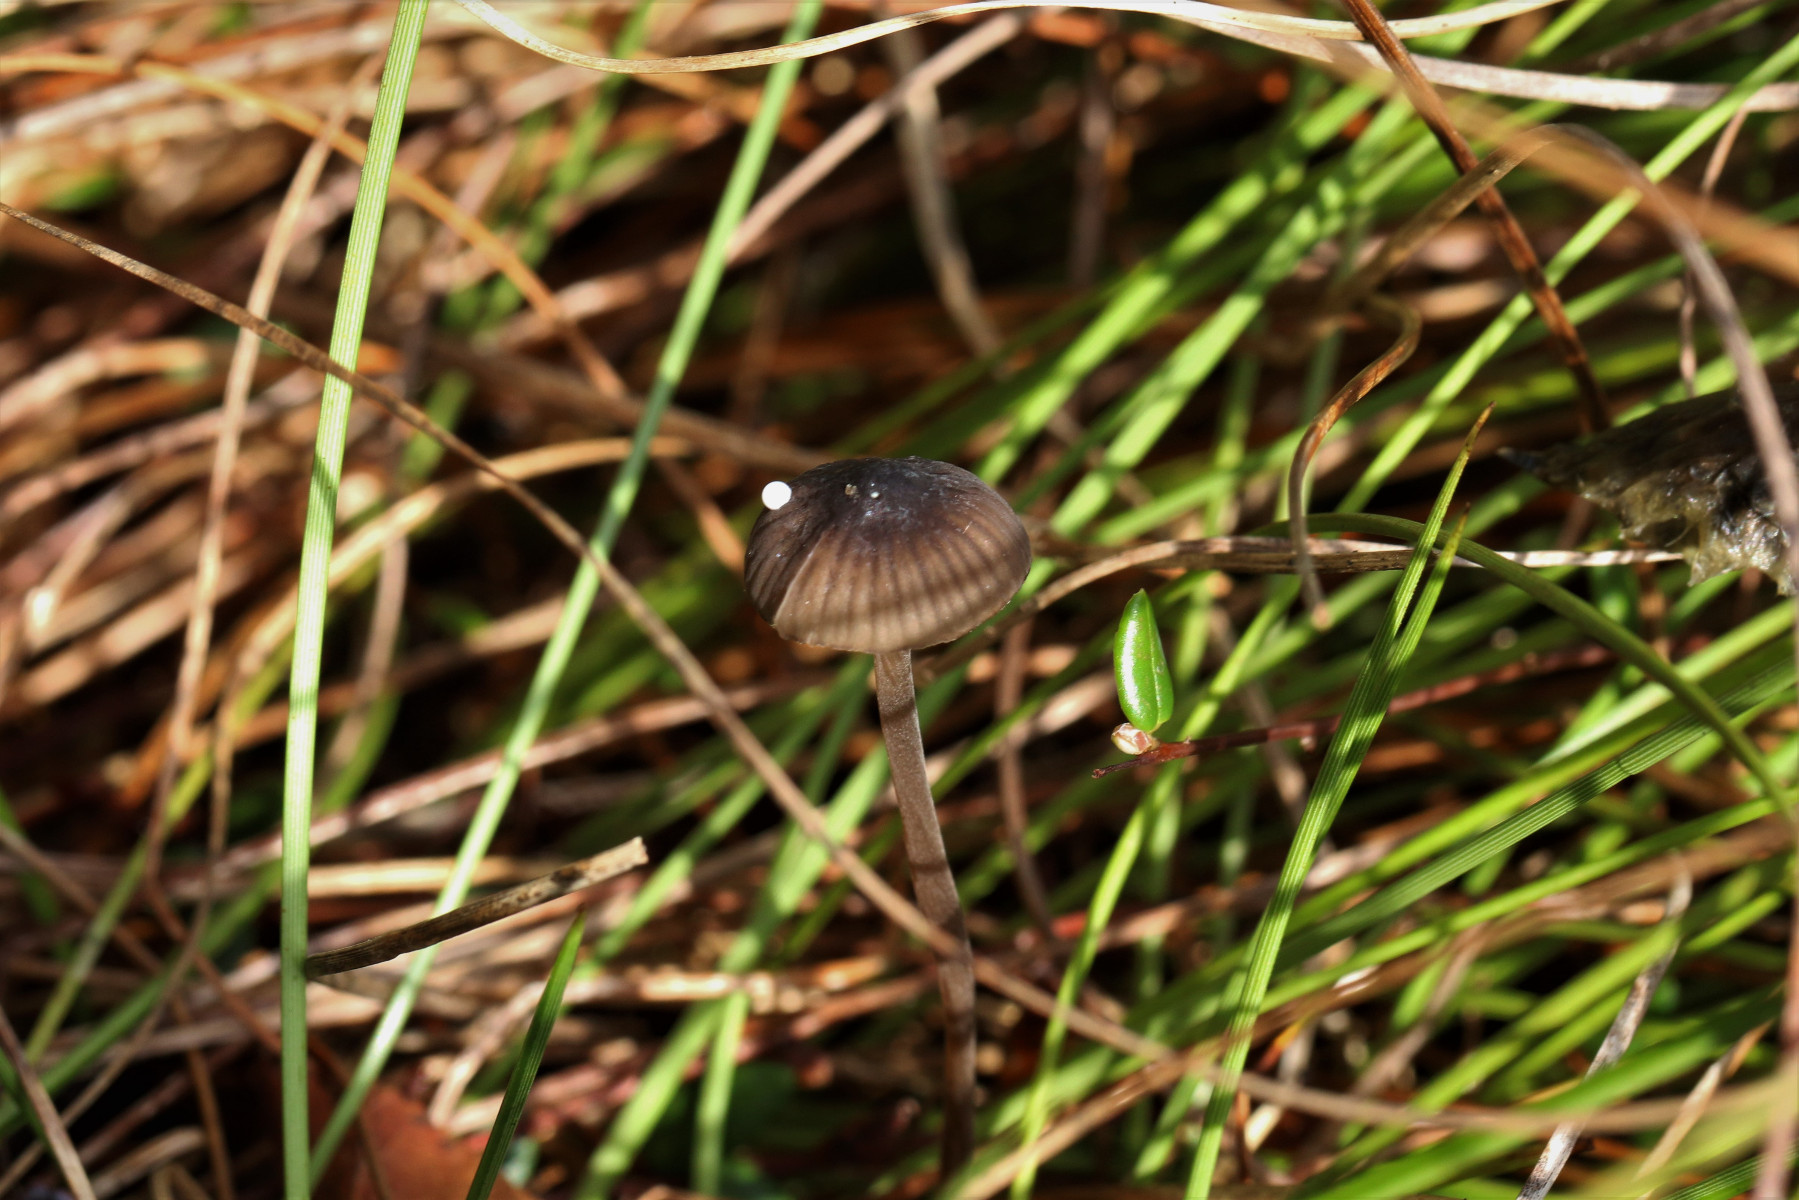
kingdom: Fungi
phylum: Basidiomycota
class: Agaricomycetes
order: Agaricales
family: Mycenaceae
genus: Mycena
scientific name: Mycena galopus
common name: hvidmælket huesvamp
